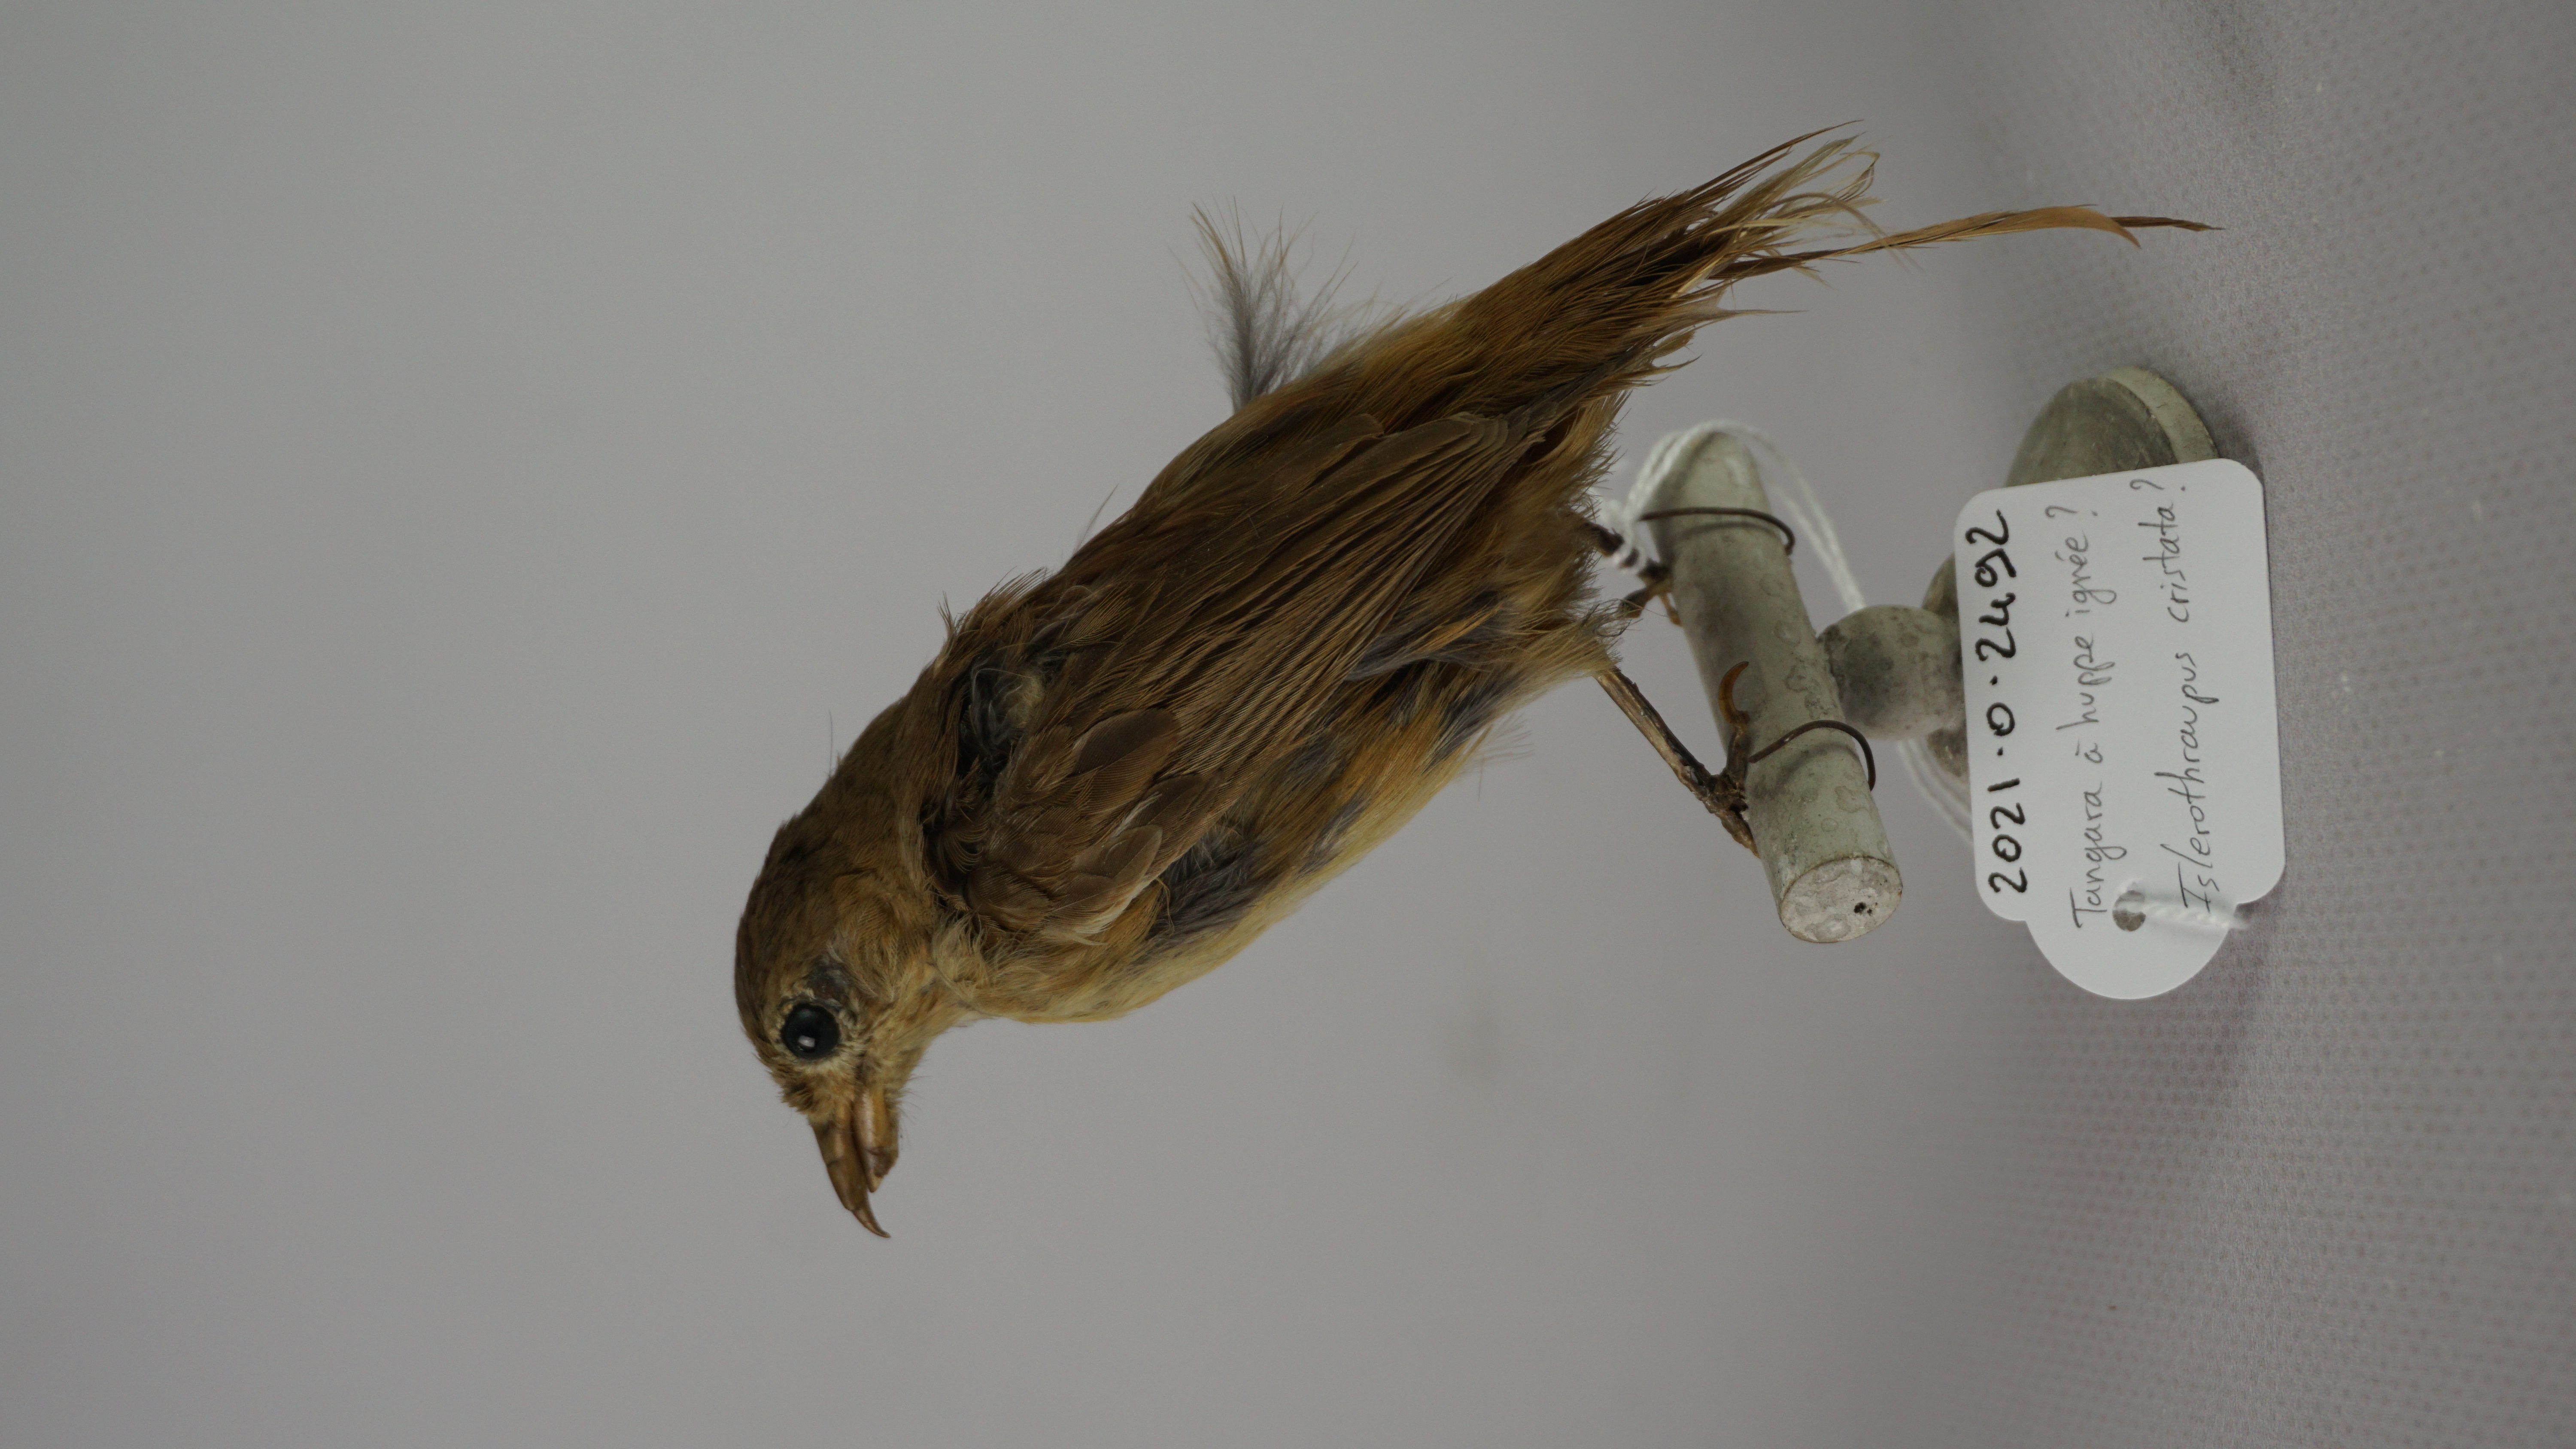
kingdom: Animalia
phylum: Chordata
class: Aves
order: Passeriformes
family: Thraupidae
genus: Loriotus
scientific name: Loriotus cristatus
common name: Flame-crested tanager
